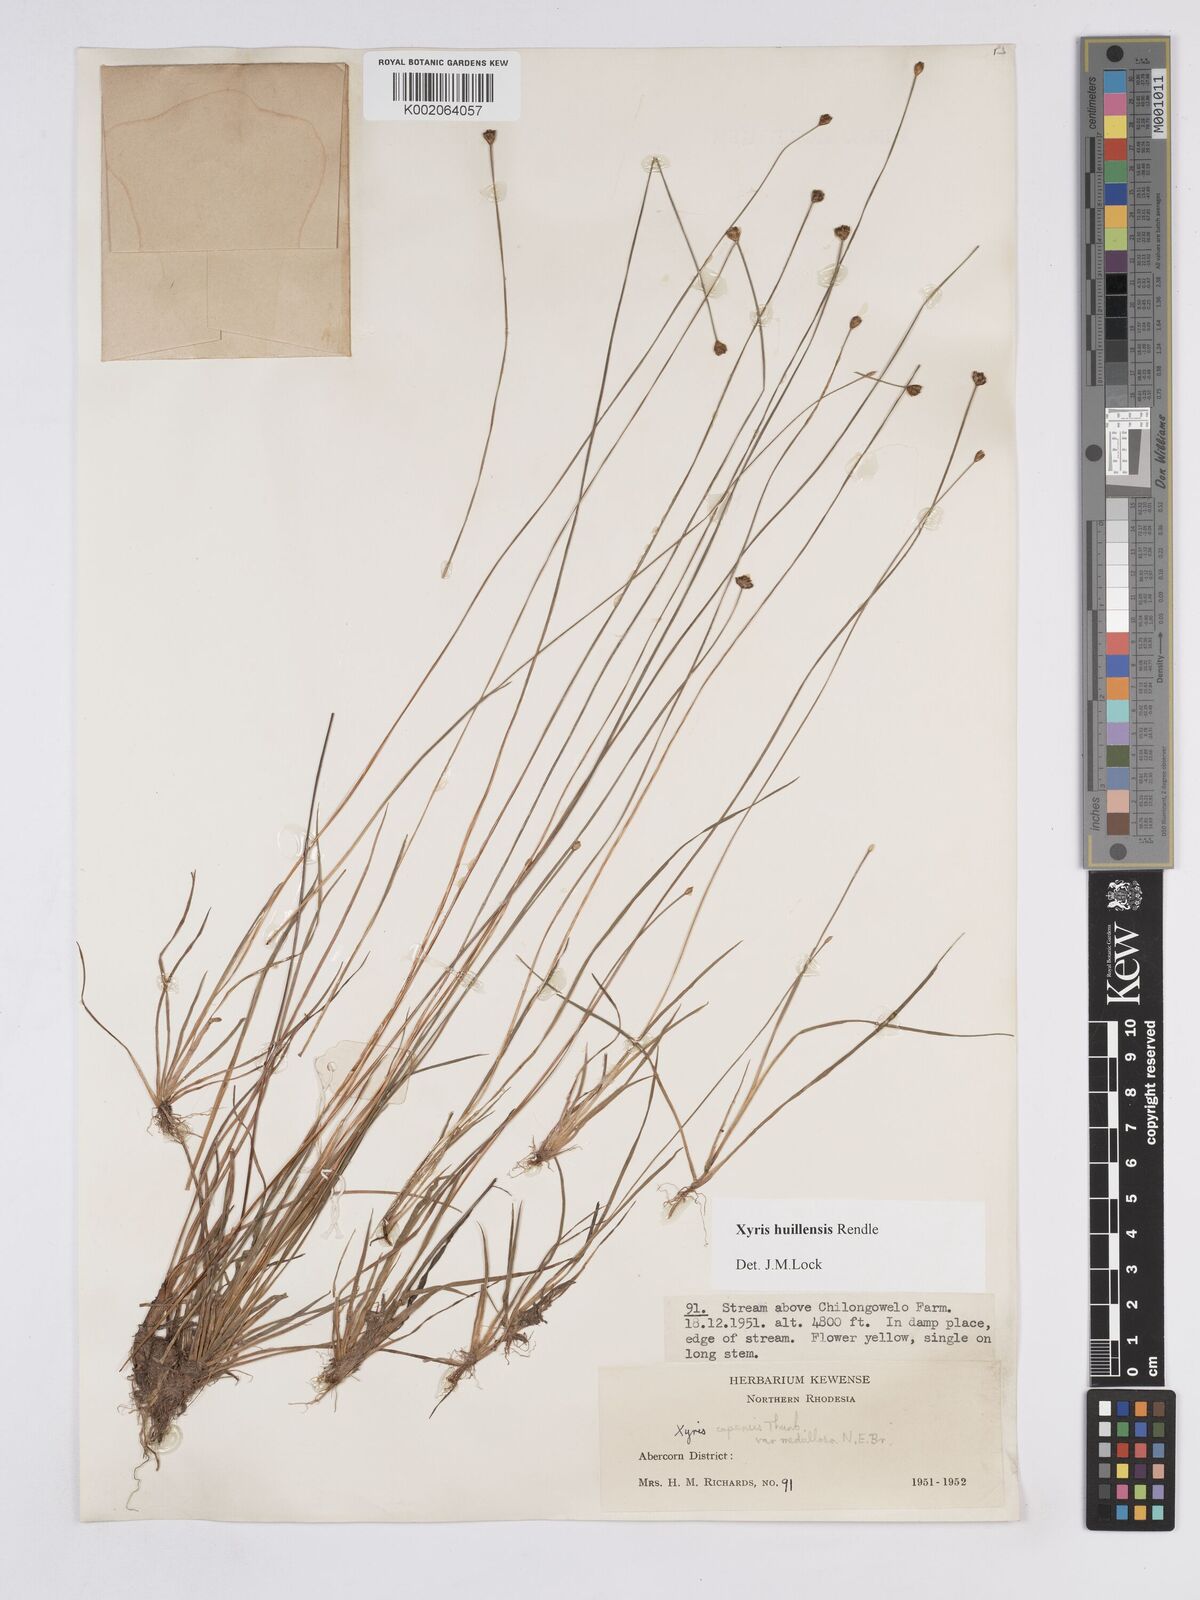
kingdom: Plantae
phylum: Tracheophyta
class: Liliopsida
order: Poales
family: Xyridaceae
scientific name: Xyridaceae
